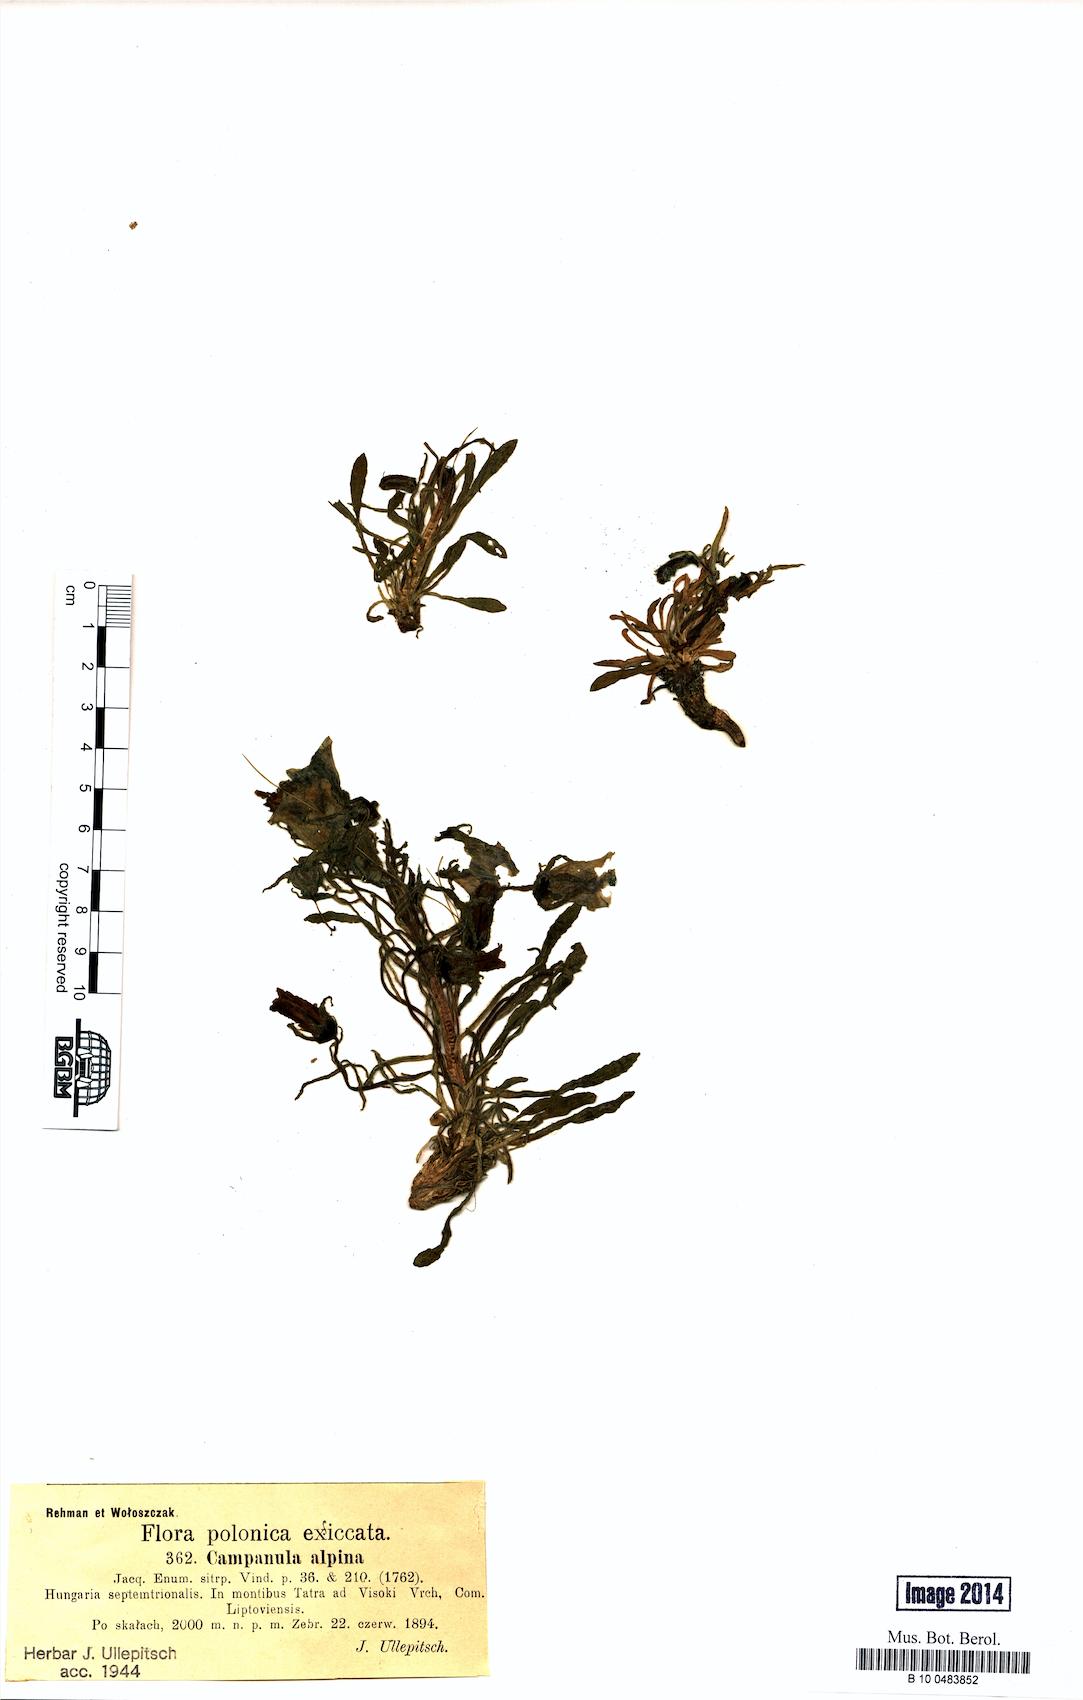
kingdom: Plantae
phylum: Tracheophyta
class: Magnoliopsida
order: Asterales
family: Campanulaceae
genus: Campanula
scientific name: Campanula alpina
